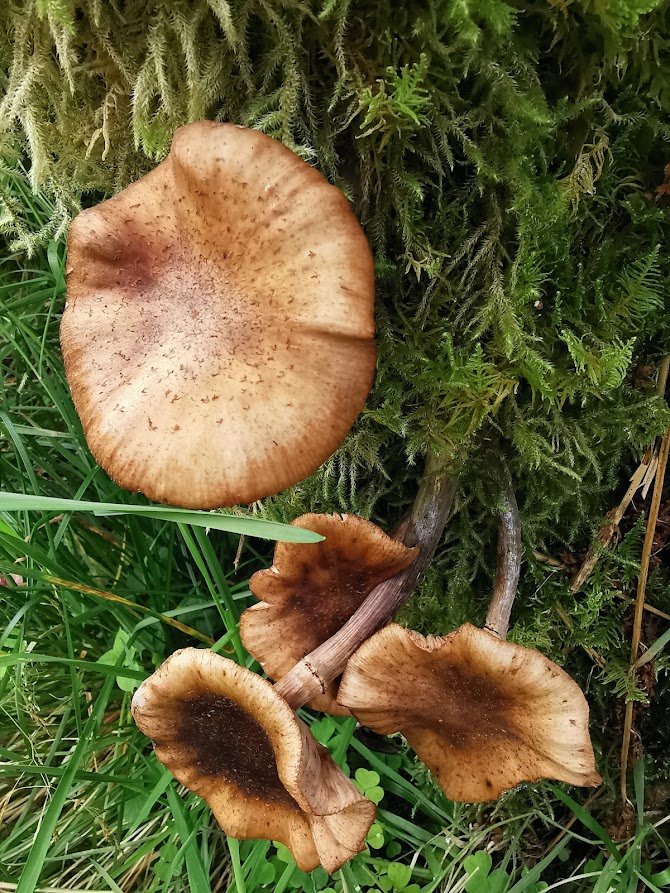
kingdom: Fungi
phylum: Basidiomycota
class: Agaricomycetes
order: Agaricales
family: Physalacriaceae
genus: Armillaria
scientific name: Armillaria
